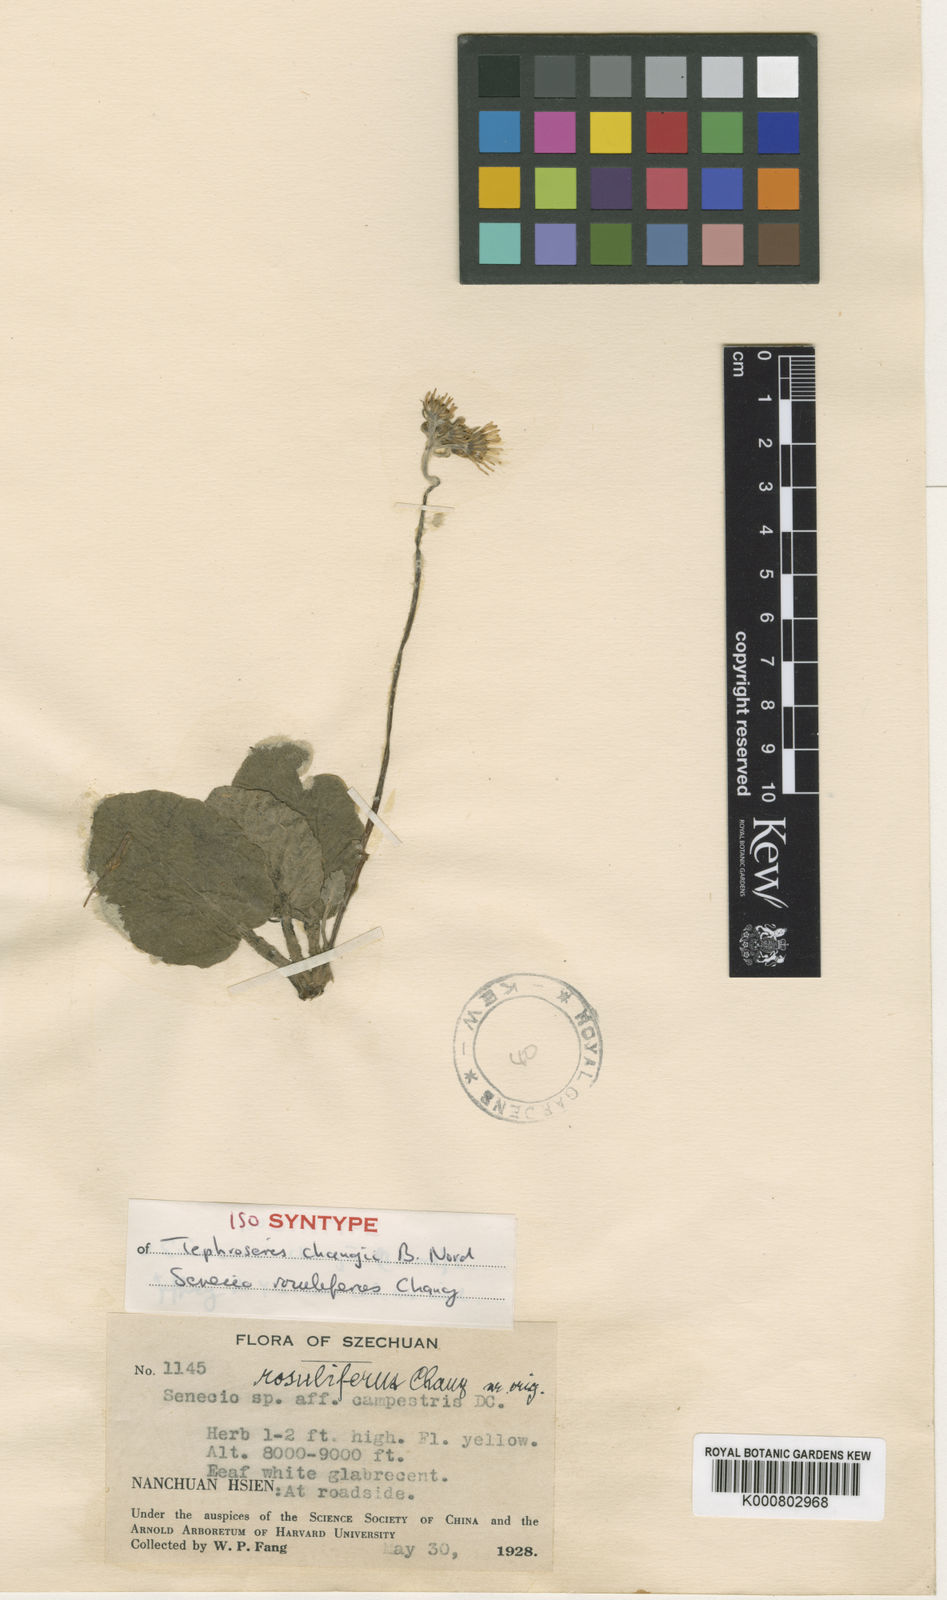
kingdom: Plantae
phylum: Tracheophyta
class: Magnoliopsida
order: Asterales
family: Asteraceae
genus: Sinosenecio
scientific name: Sinosenecio changii
